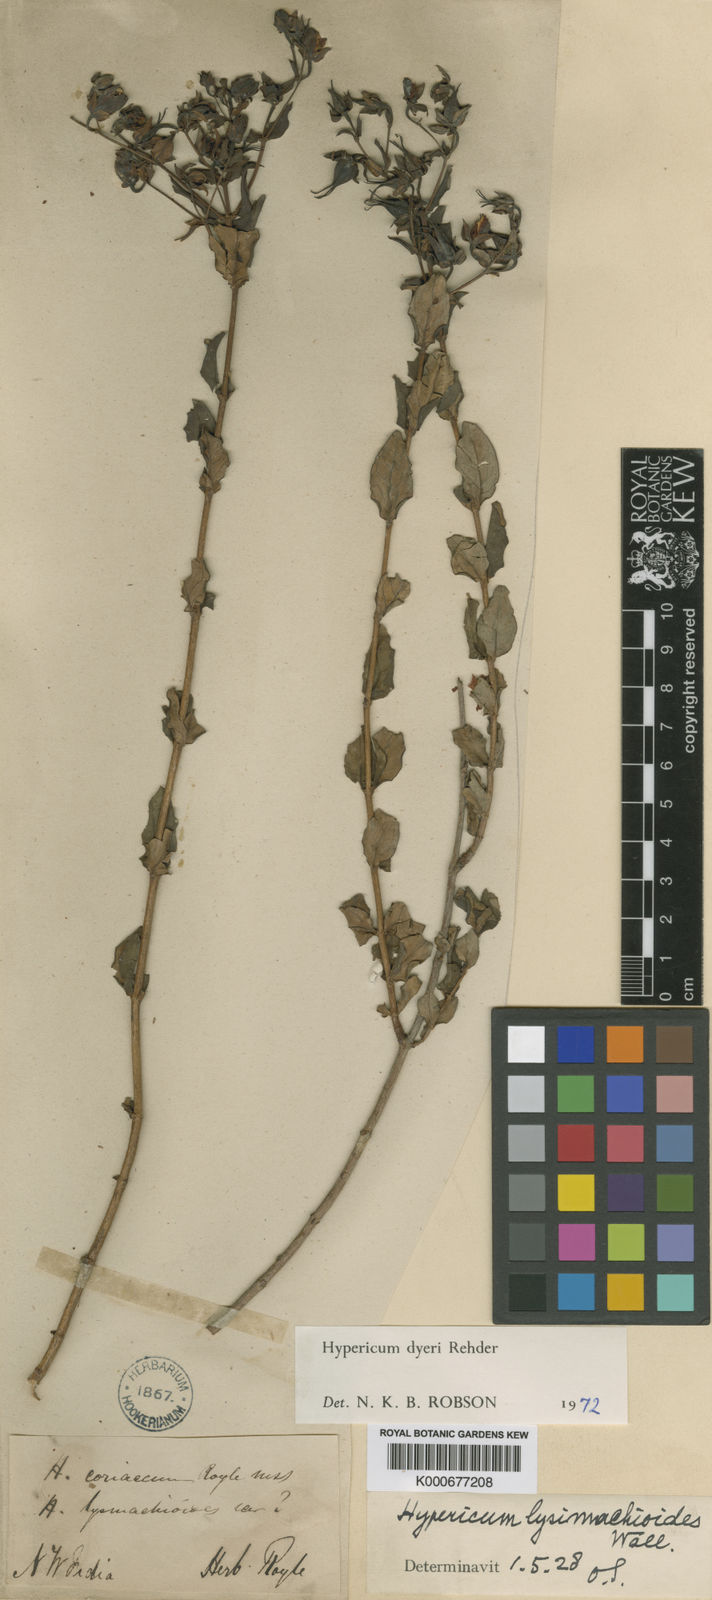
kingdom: Plantae
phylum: Tracheophyta
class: Magnoliopsida
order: Malpighiales
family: Hypericaceae
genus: Hypericum
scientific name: Hypericum dyeri
